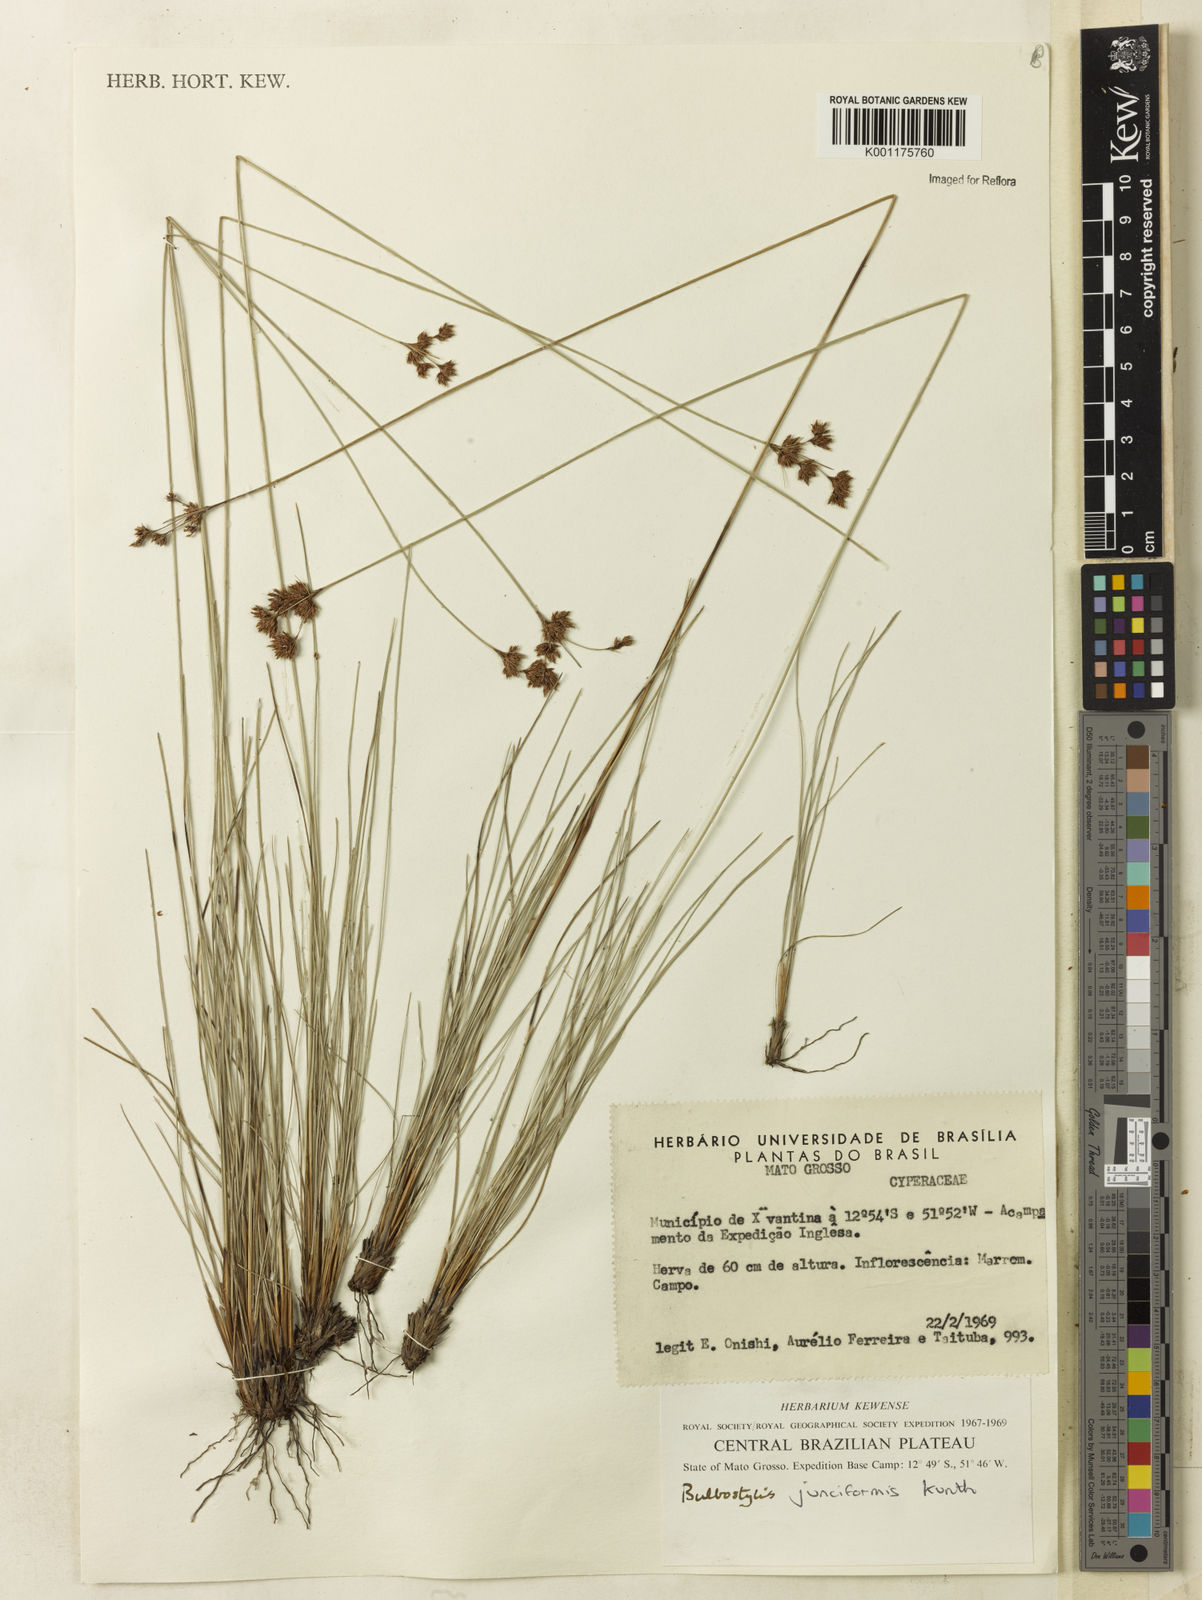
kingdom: Plantae
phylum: Tracheophyta
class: Liliopsida
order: Poales
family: Cyperaceae
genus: Bulbostylis
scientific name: Bulbostylis junciformis
